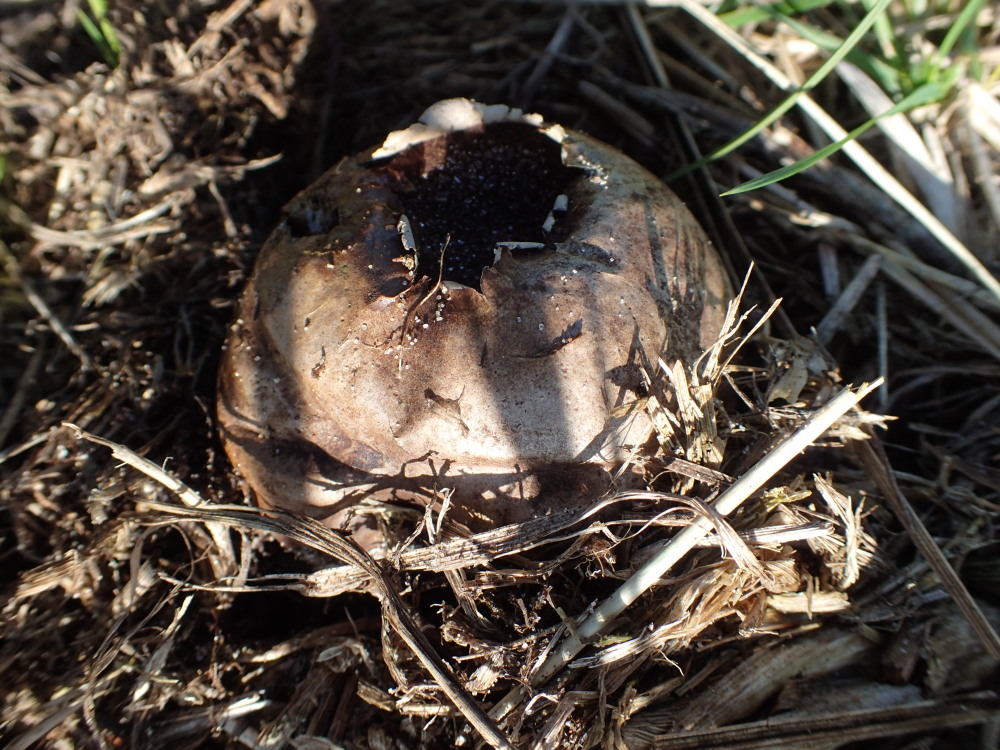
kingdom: Fungi
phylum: Basidiomycota
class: Agaricomycetes
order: Agaricales
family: Lycoperdaceae
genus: Bovista
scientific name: Bovista nigrescens
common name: sortagtig bovist
